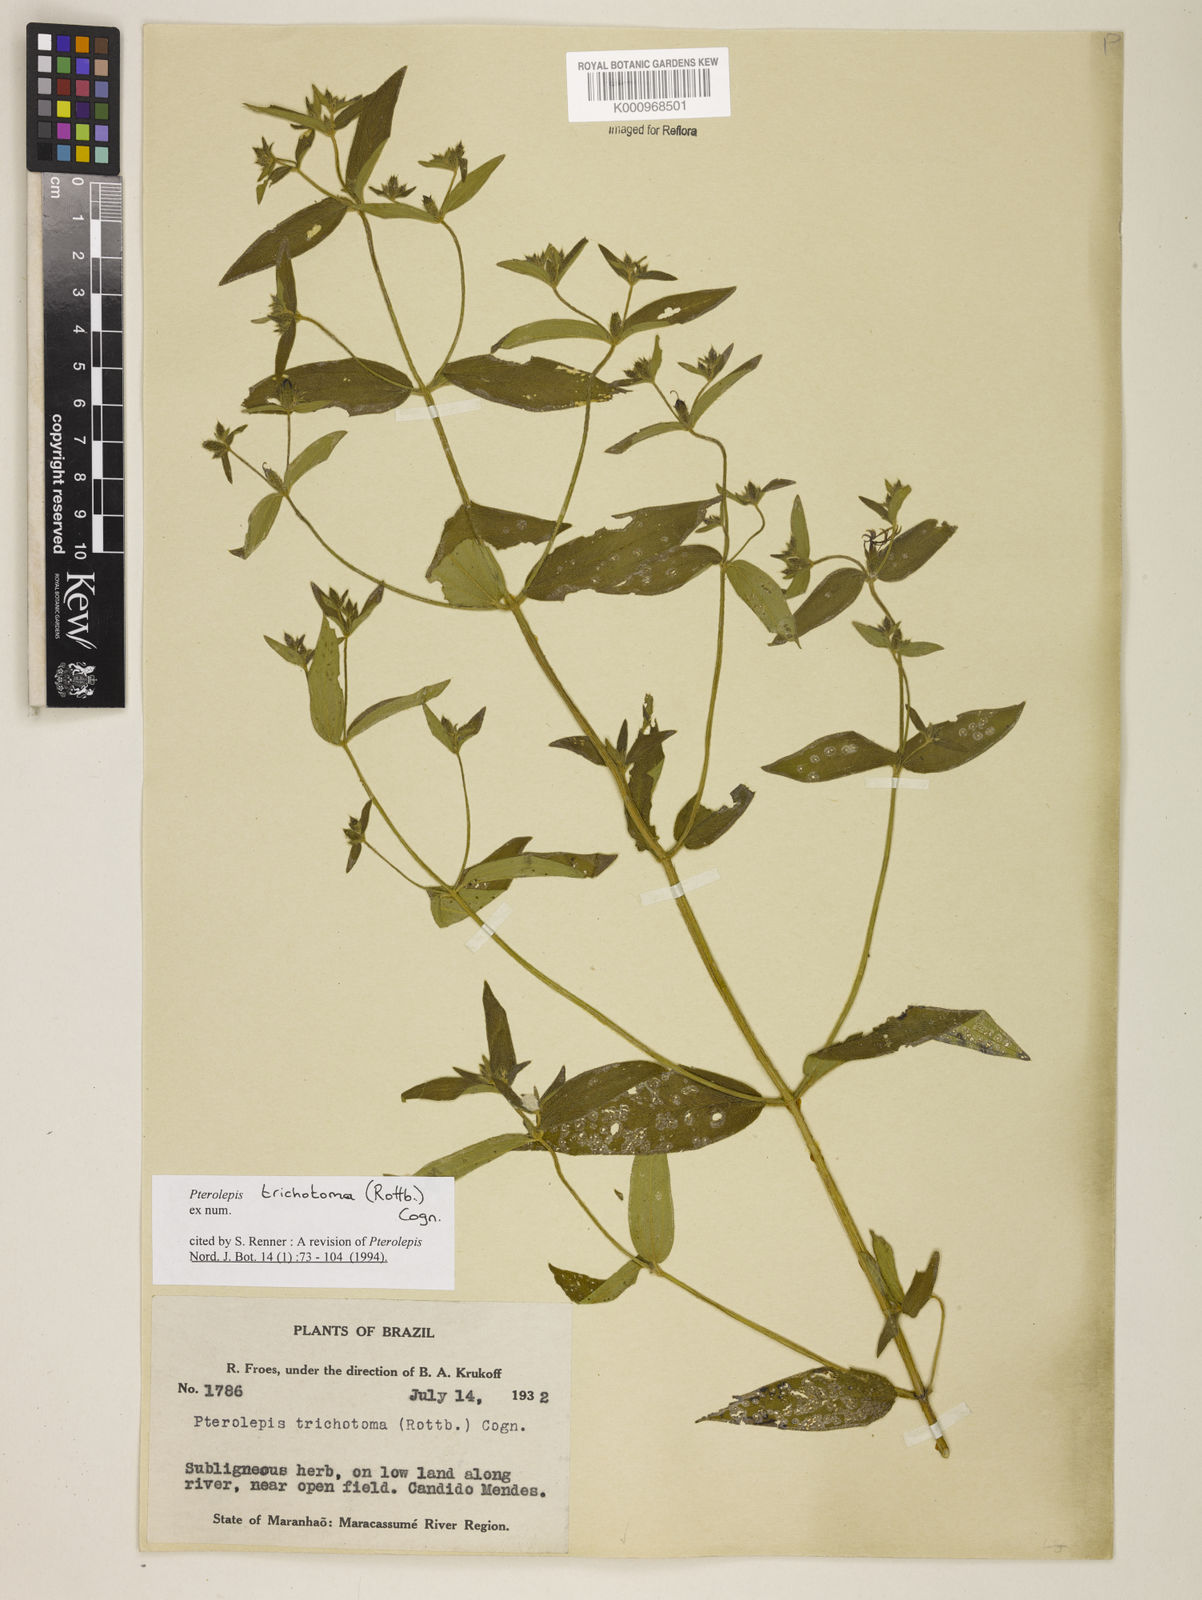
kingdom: Plantae
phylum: Tracheophyta
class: Magnoliopsida
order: Myrtales
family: Melastomataceae
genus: Pterolepis
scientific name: Pterolepis trichotoma
